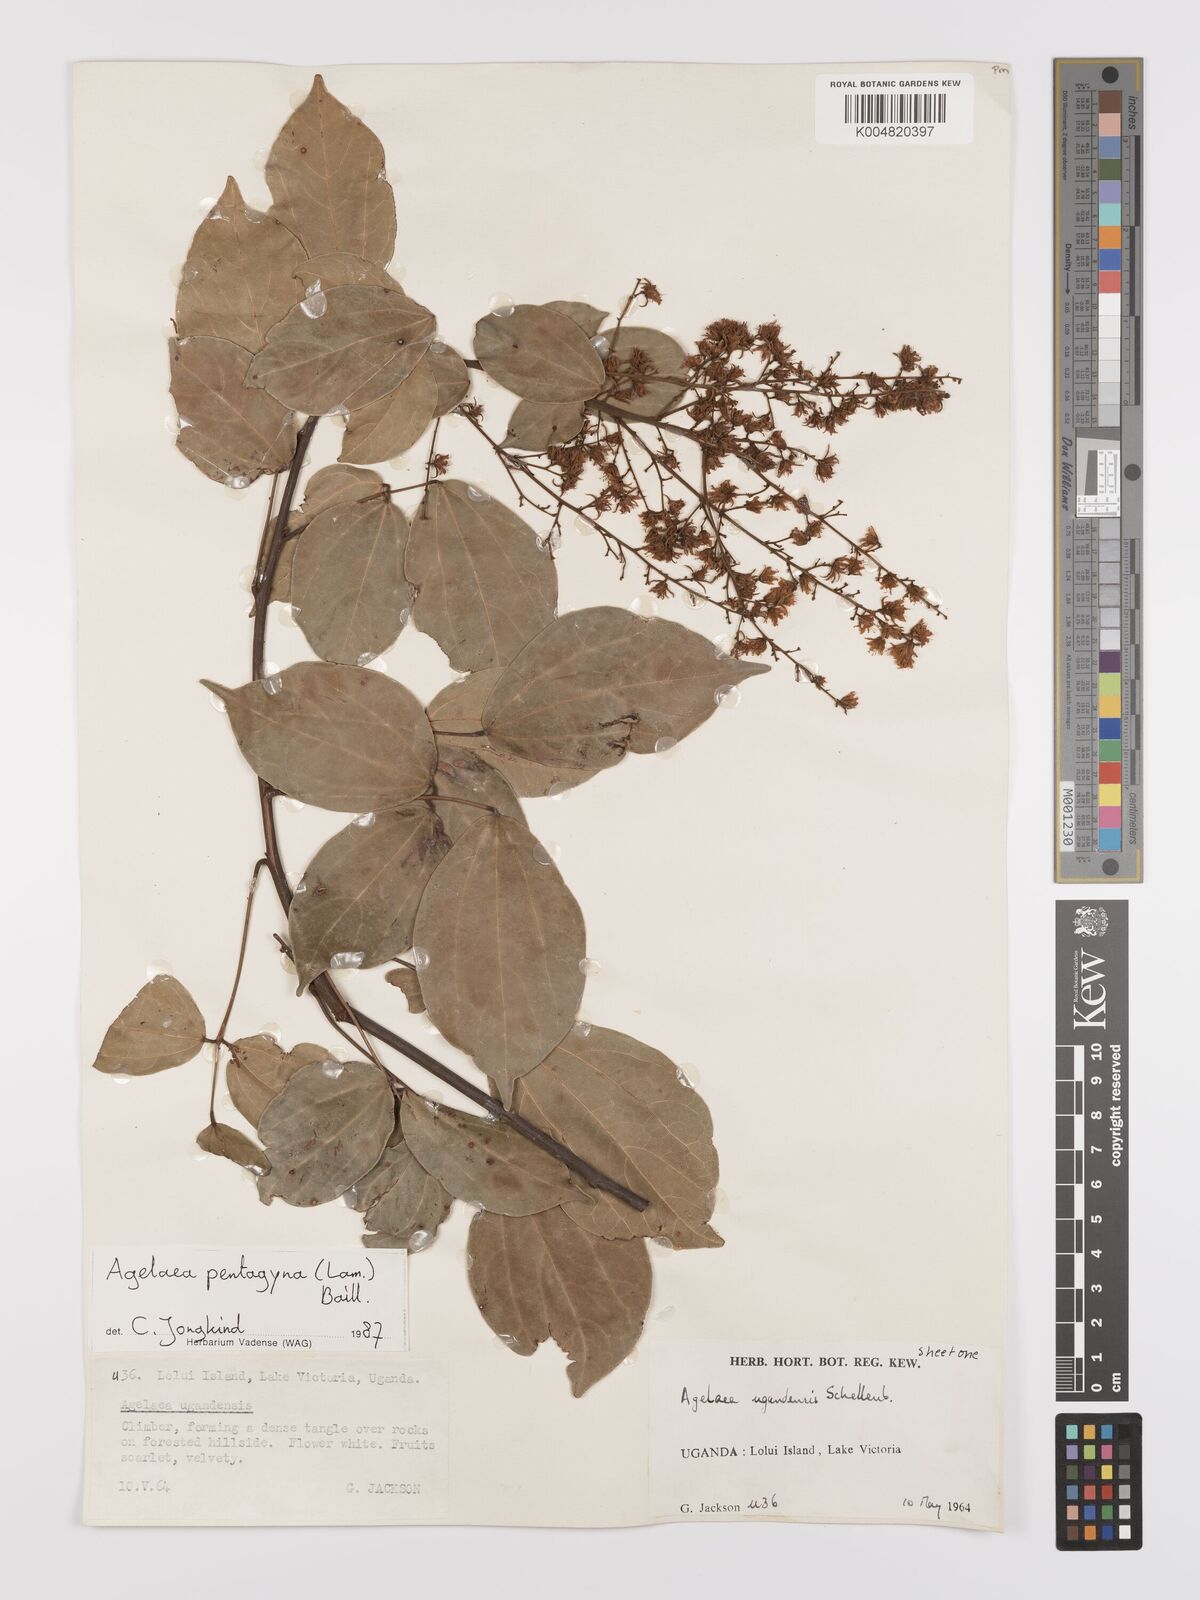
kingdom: Plantae
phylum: Tracheophyta
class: Magnoliopsida
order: Oxalidales
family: Connaraceae
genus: Agelaea
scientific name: Agelaea pentagyna
